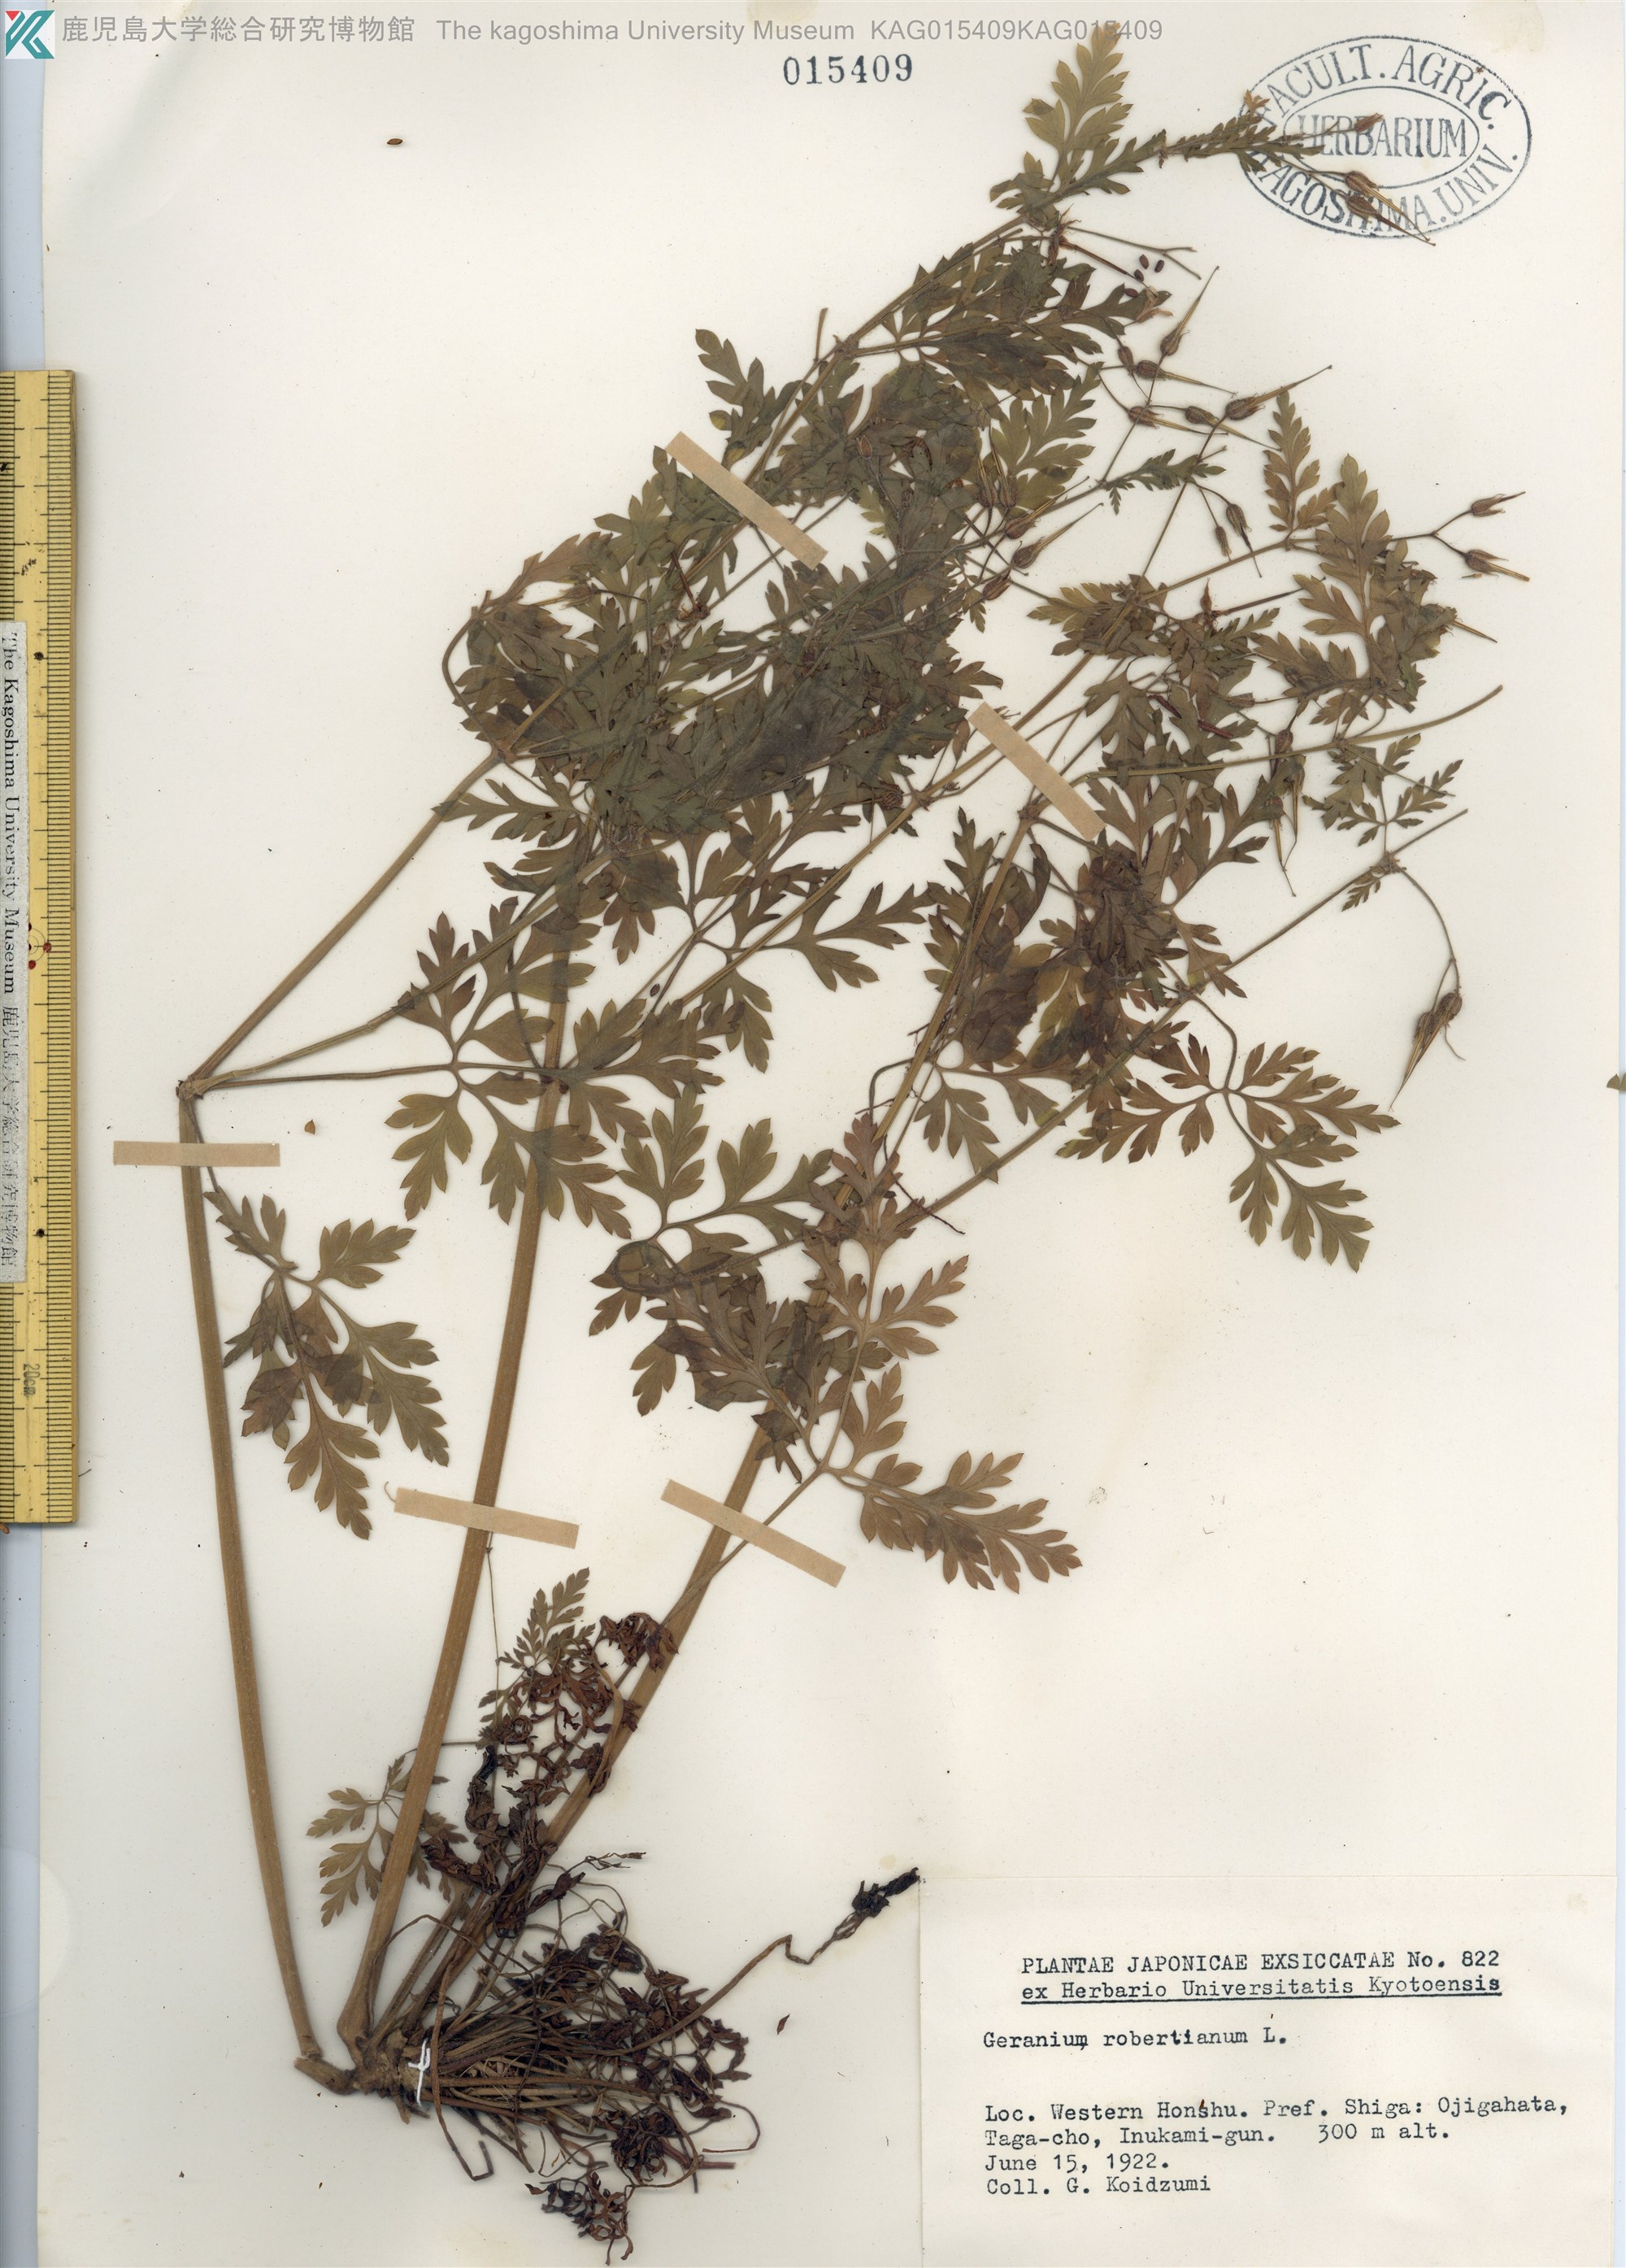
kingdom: Plantae
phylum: Tracheophyta
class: Magnoliopsida
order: Geraniales
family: Geraniaceae
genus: Geranium
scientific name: Geranium robertianum
